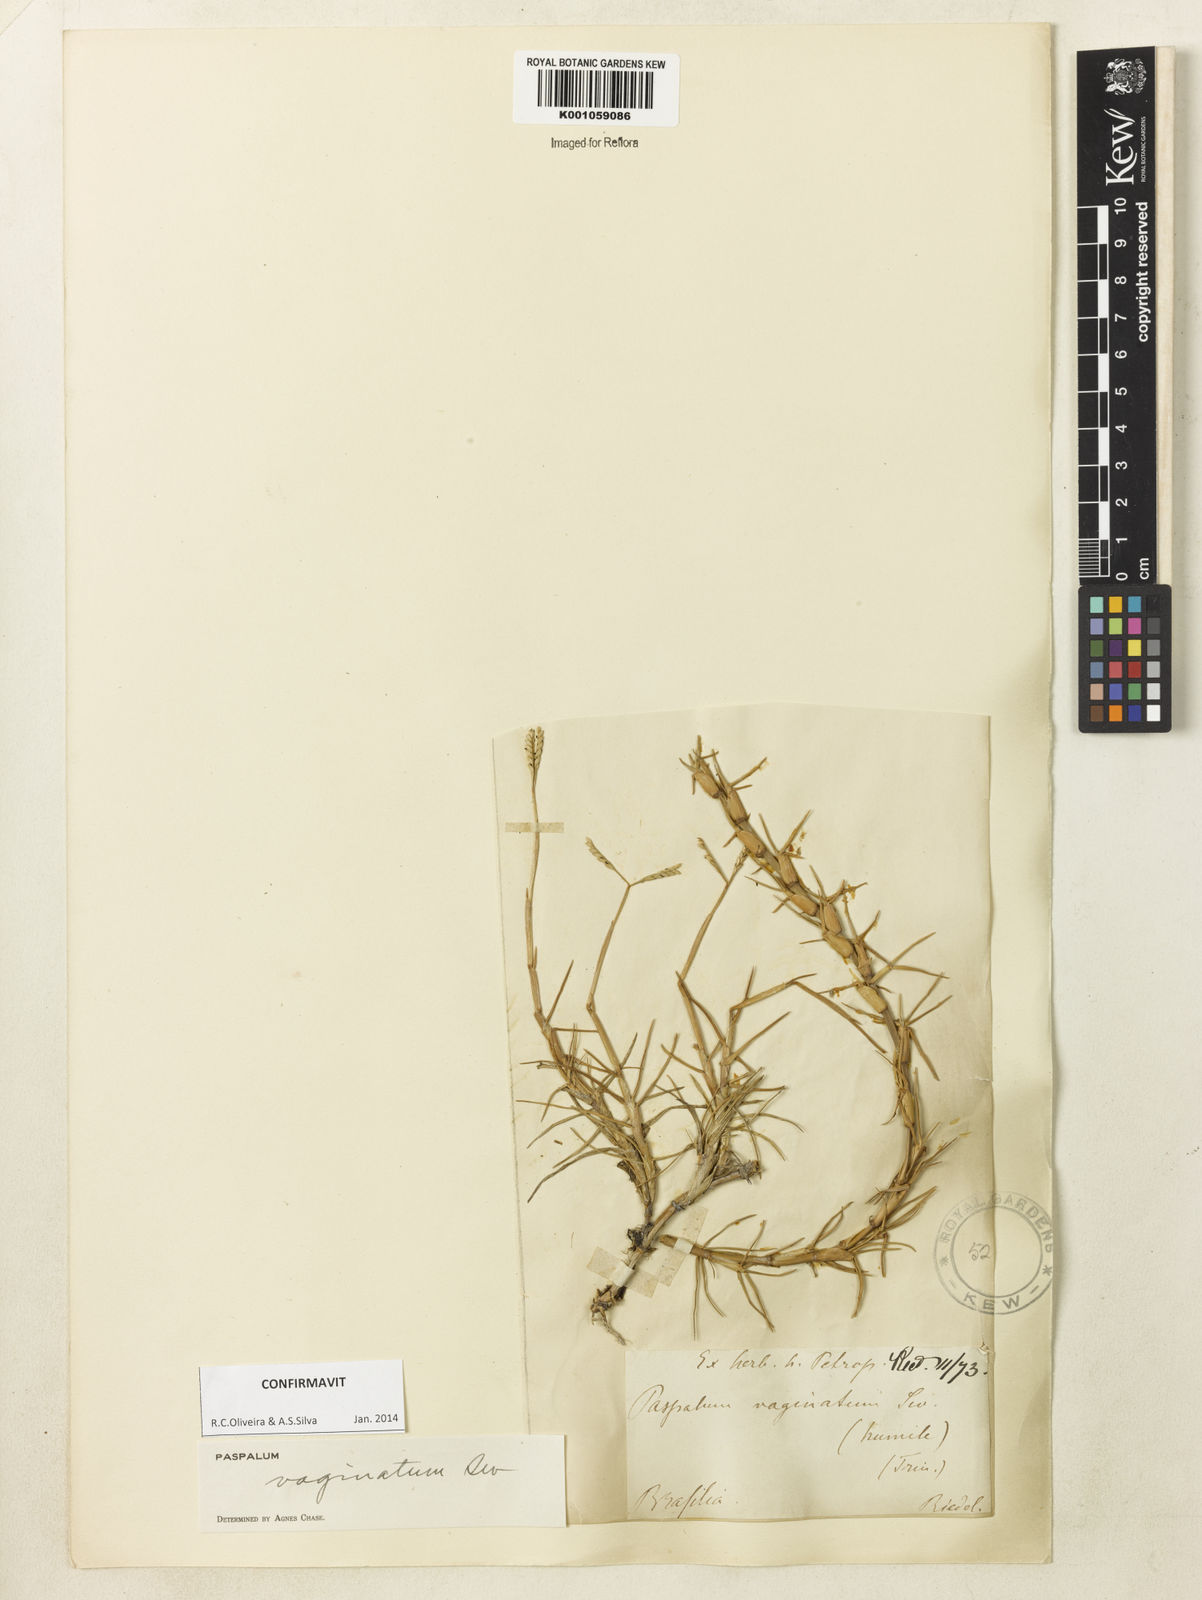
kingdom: Plantae
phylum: Tracheophyta
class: Liliopsida
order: Poales
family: Poaceae
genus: Paspalum
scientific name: Paspalum vaginatum
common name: Seashore paspalum
